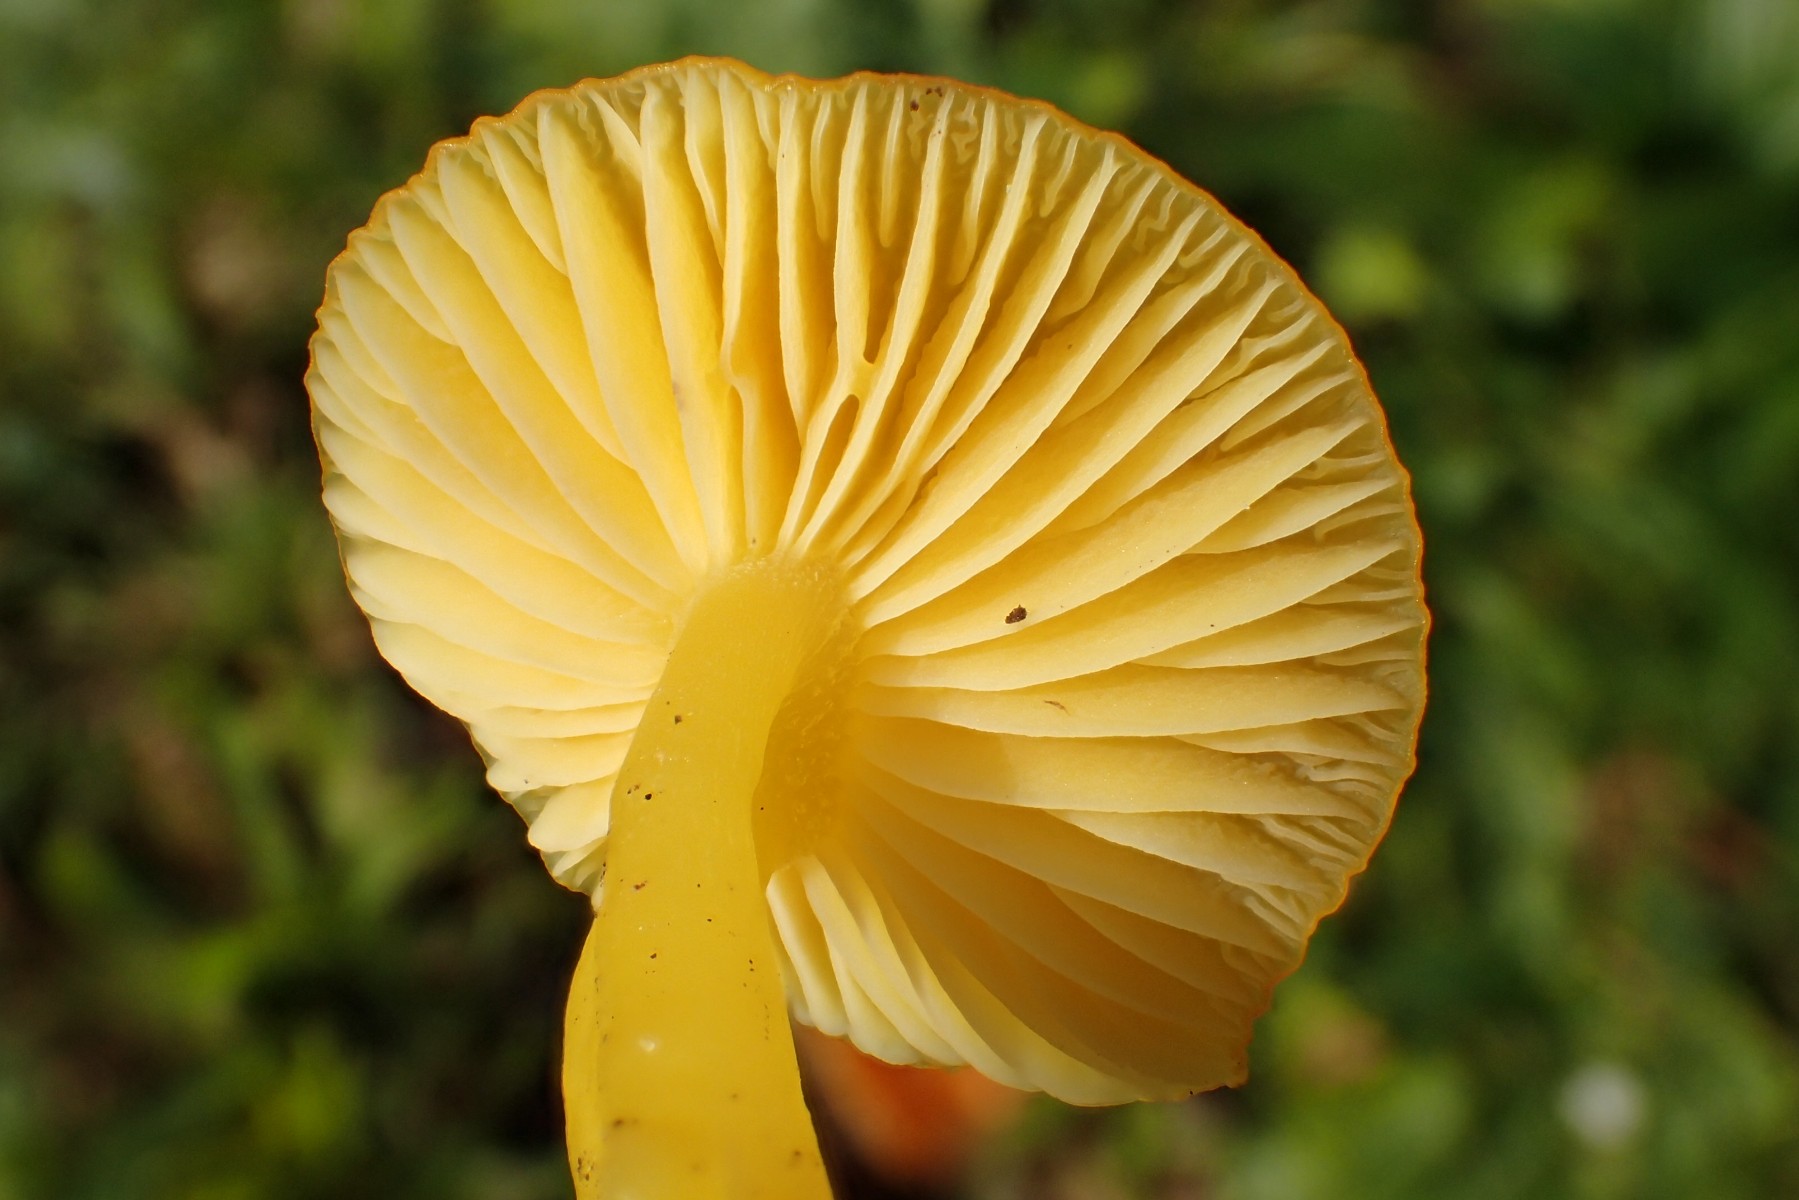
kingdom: Fungi
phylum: Basidiomycota
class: Agaricomycetes
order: Agaricales
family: Hygrophoraceae
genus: Hygrocybe
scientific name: Hygrocybe ceracea
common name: voksgul vokshat
